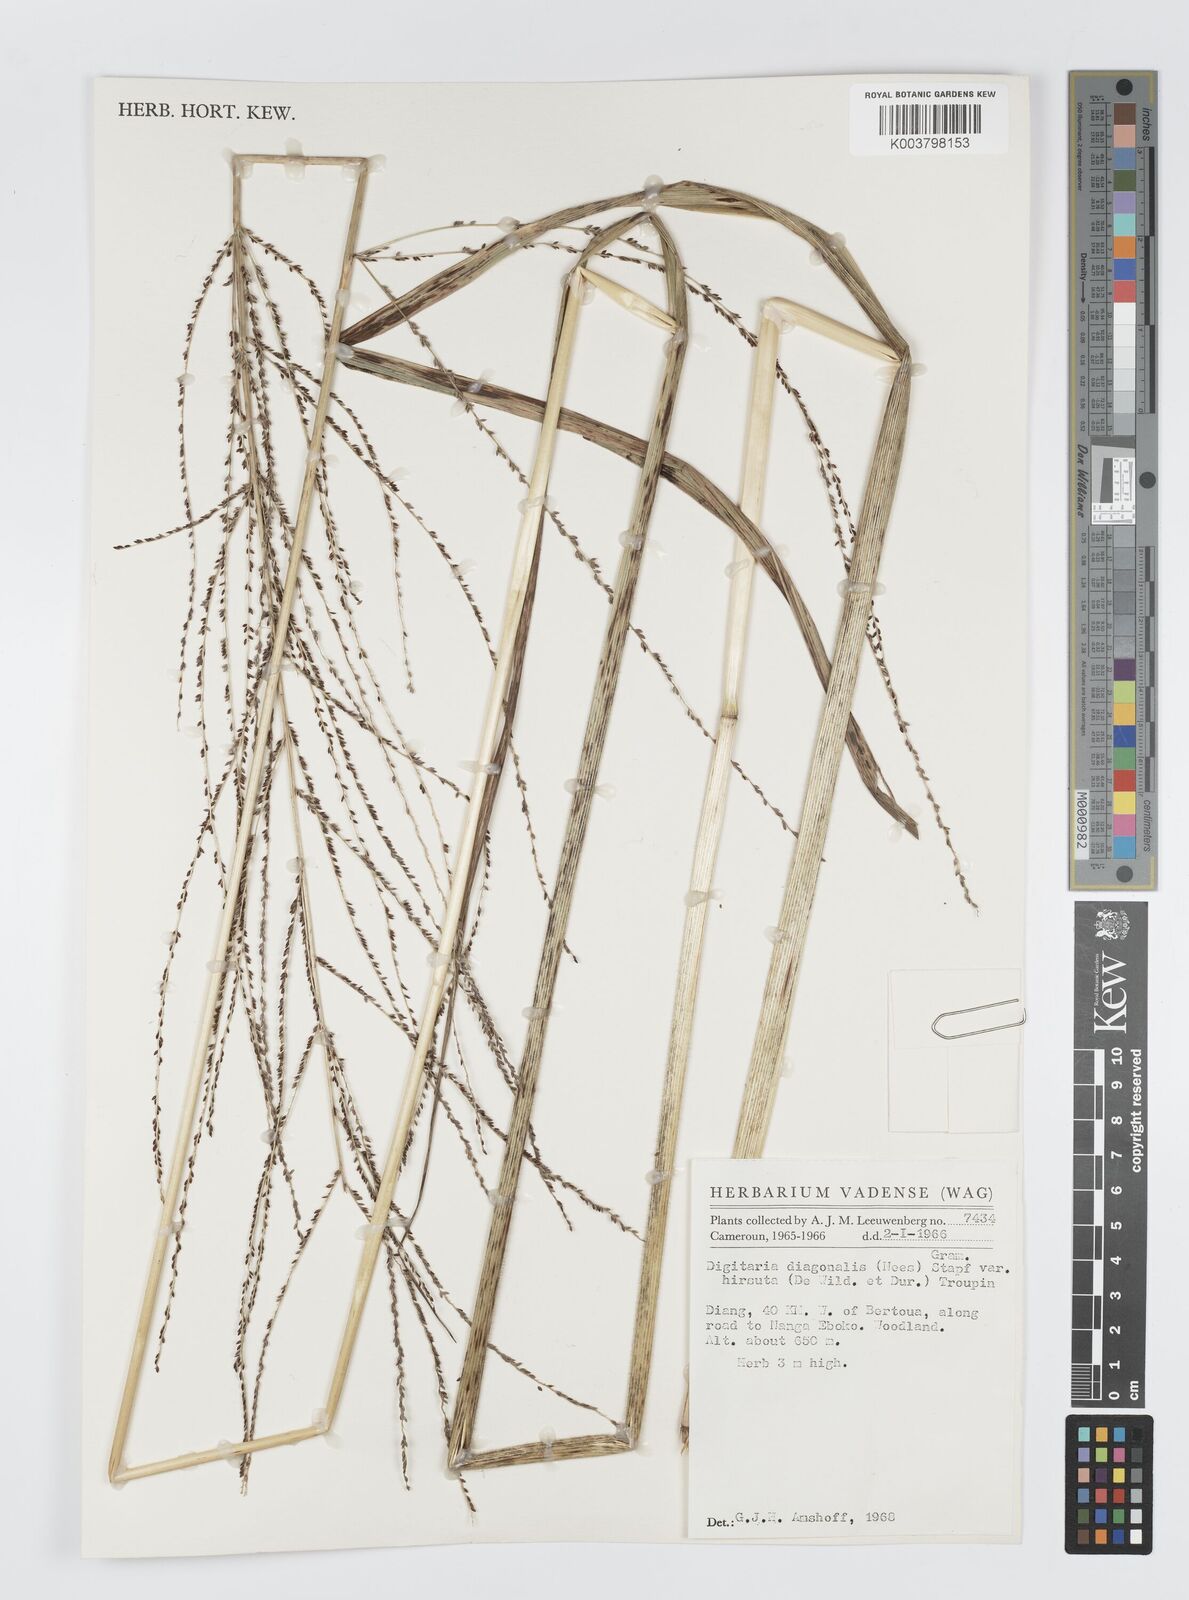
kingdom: Plantae
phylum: Tracheophyta
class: Liliopsida
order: Poales
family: Poaceae
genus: Digitaria
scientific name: Digitaria diagonalis
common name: Brown-seed finger grass
